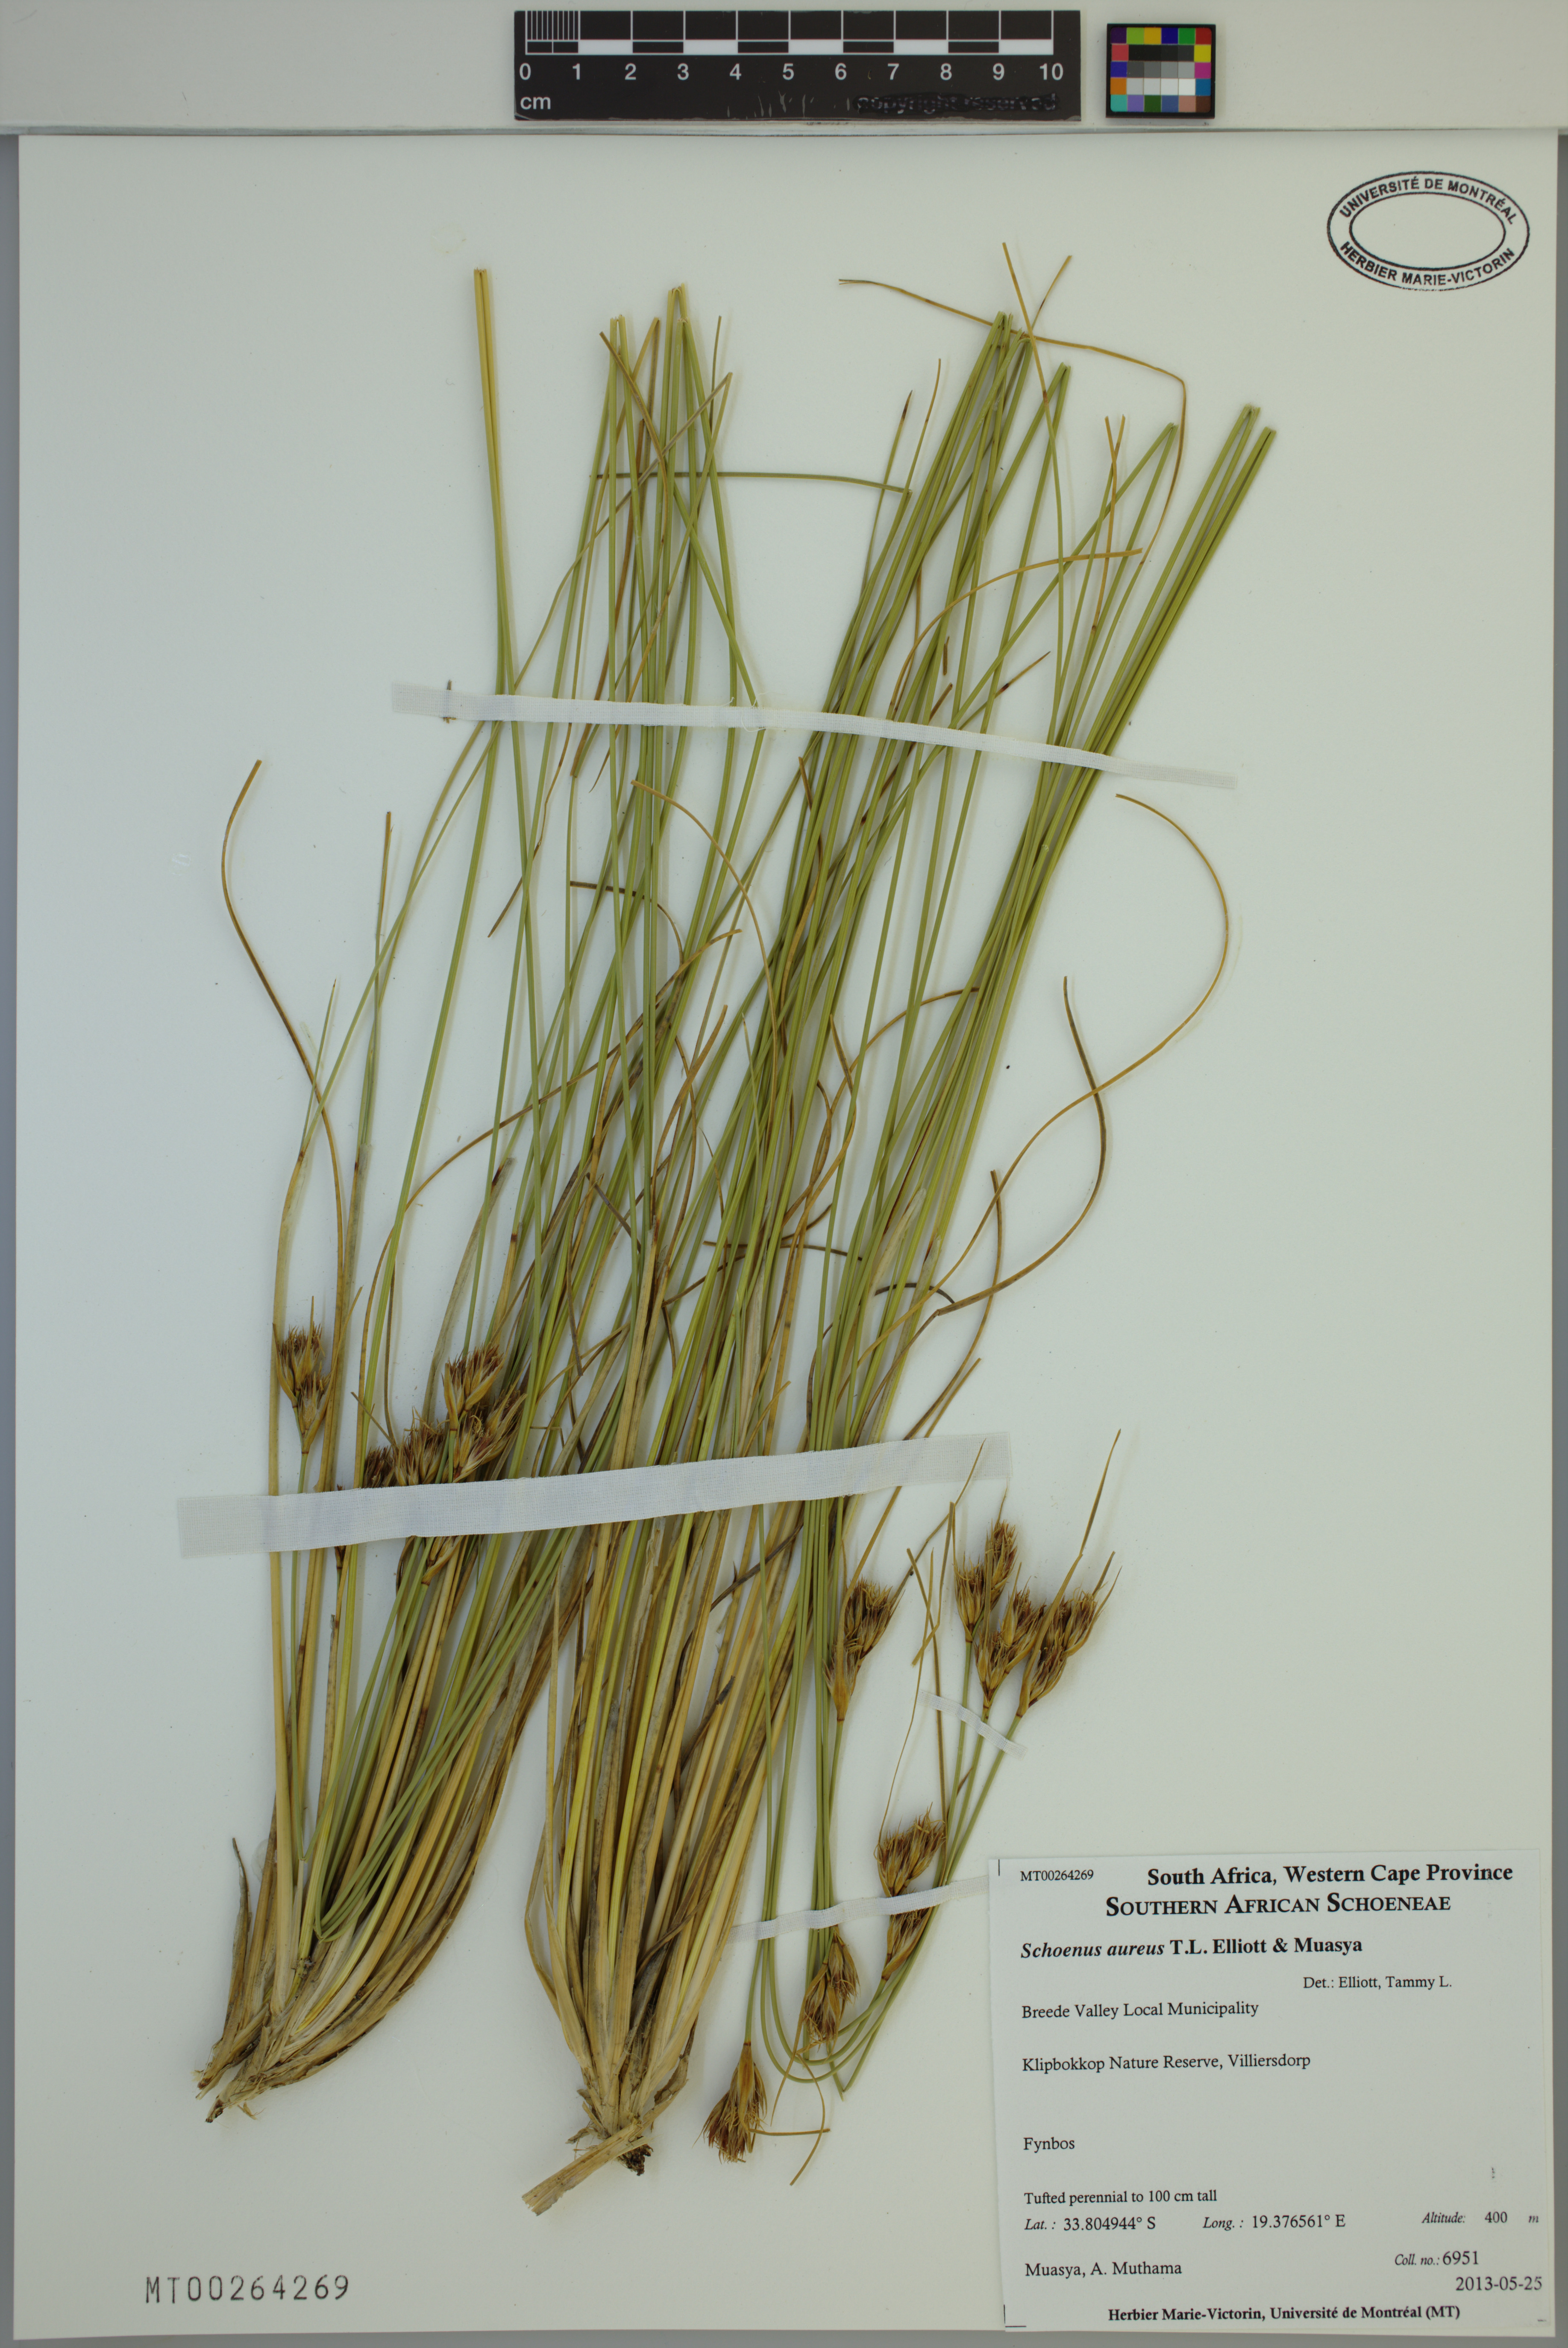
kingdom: Plantae
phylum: Tracheophyta
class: Liliopsida
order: Poales
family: Cyperaceae
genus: Schoenus
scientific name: Schoenus aureus
